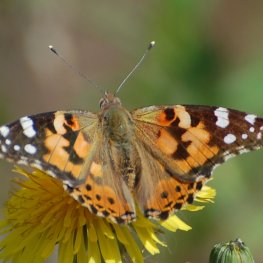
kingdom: Animalia
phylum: Arthropoda
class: Insecta
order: Lepidoptera
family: Nymphalidae
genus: Vanessa
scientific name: Vanessa cardui
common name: Painted Lady
